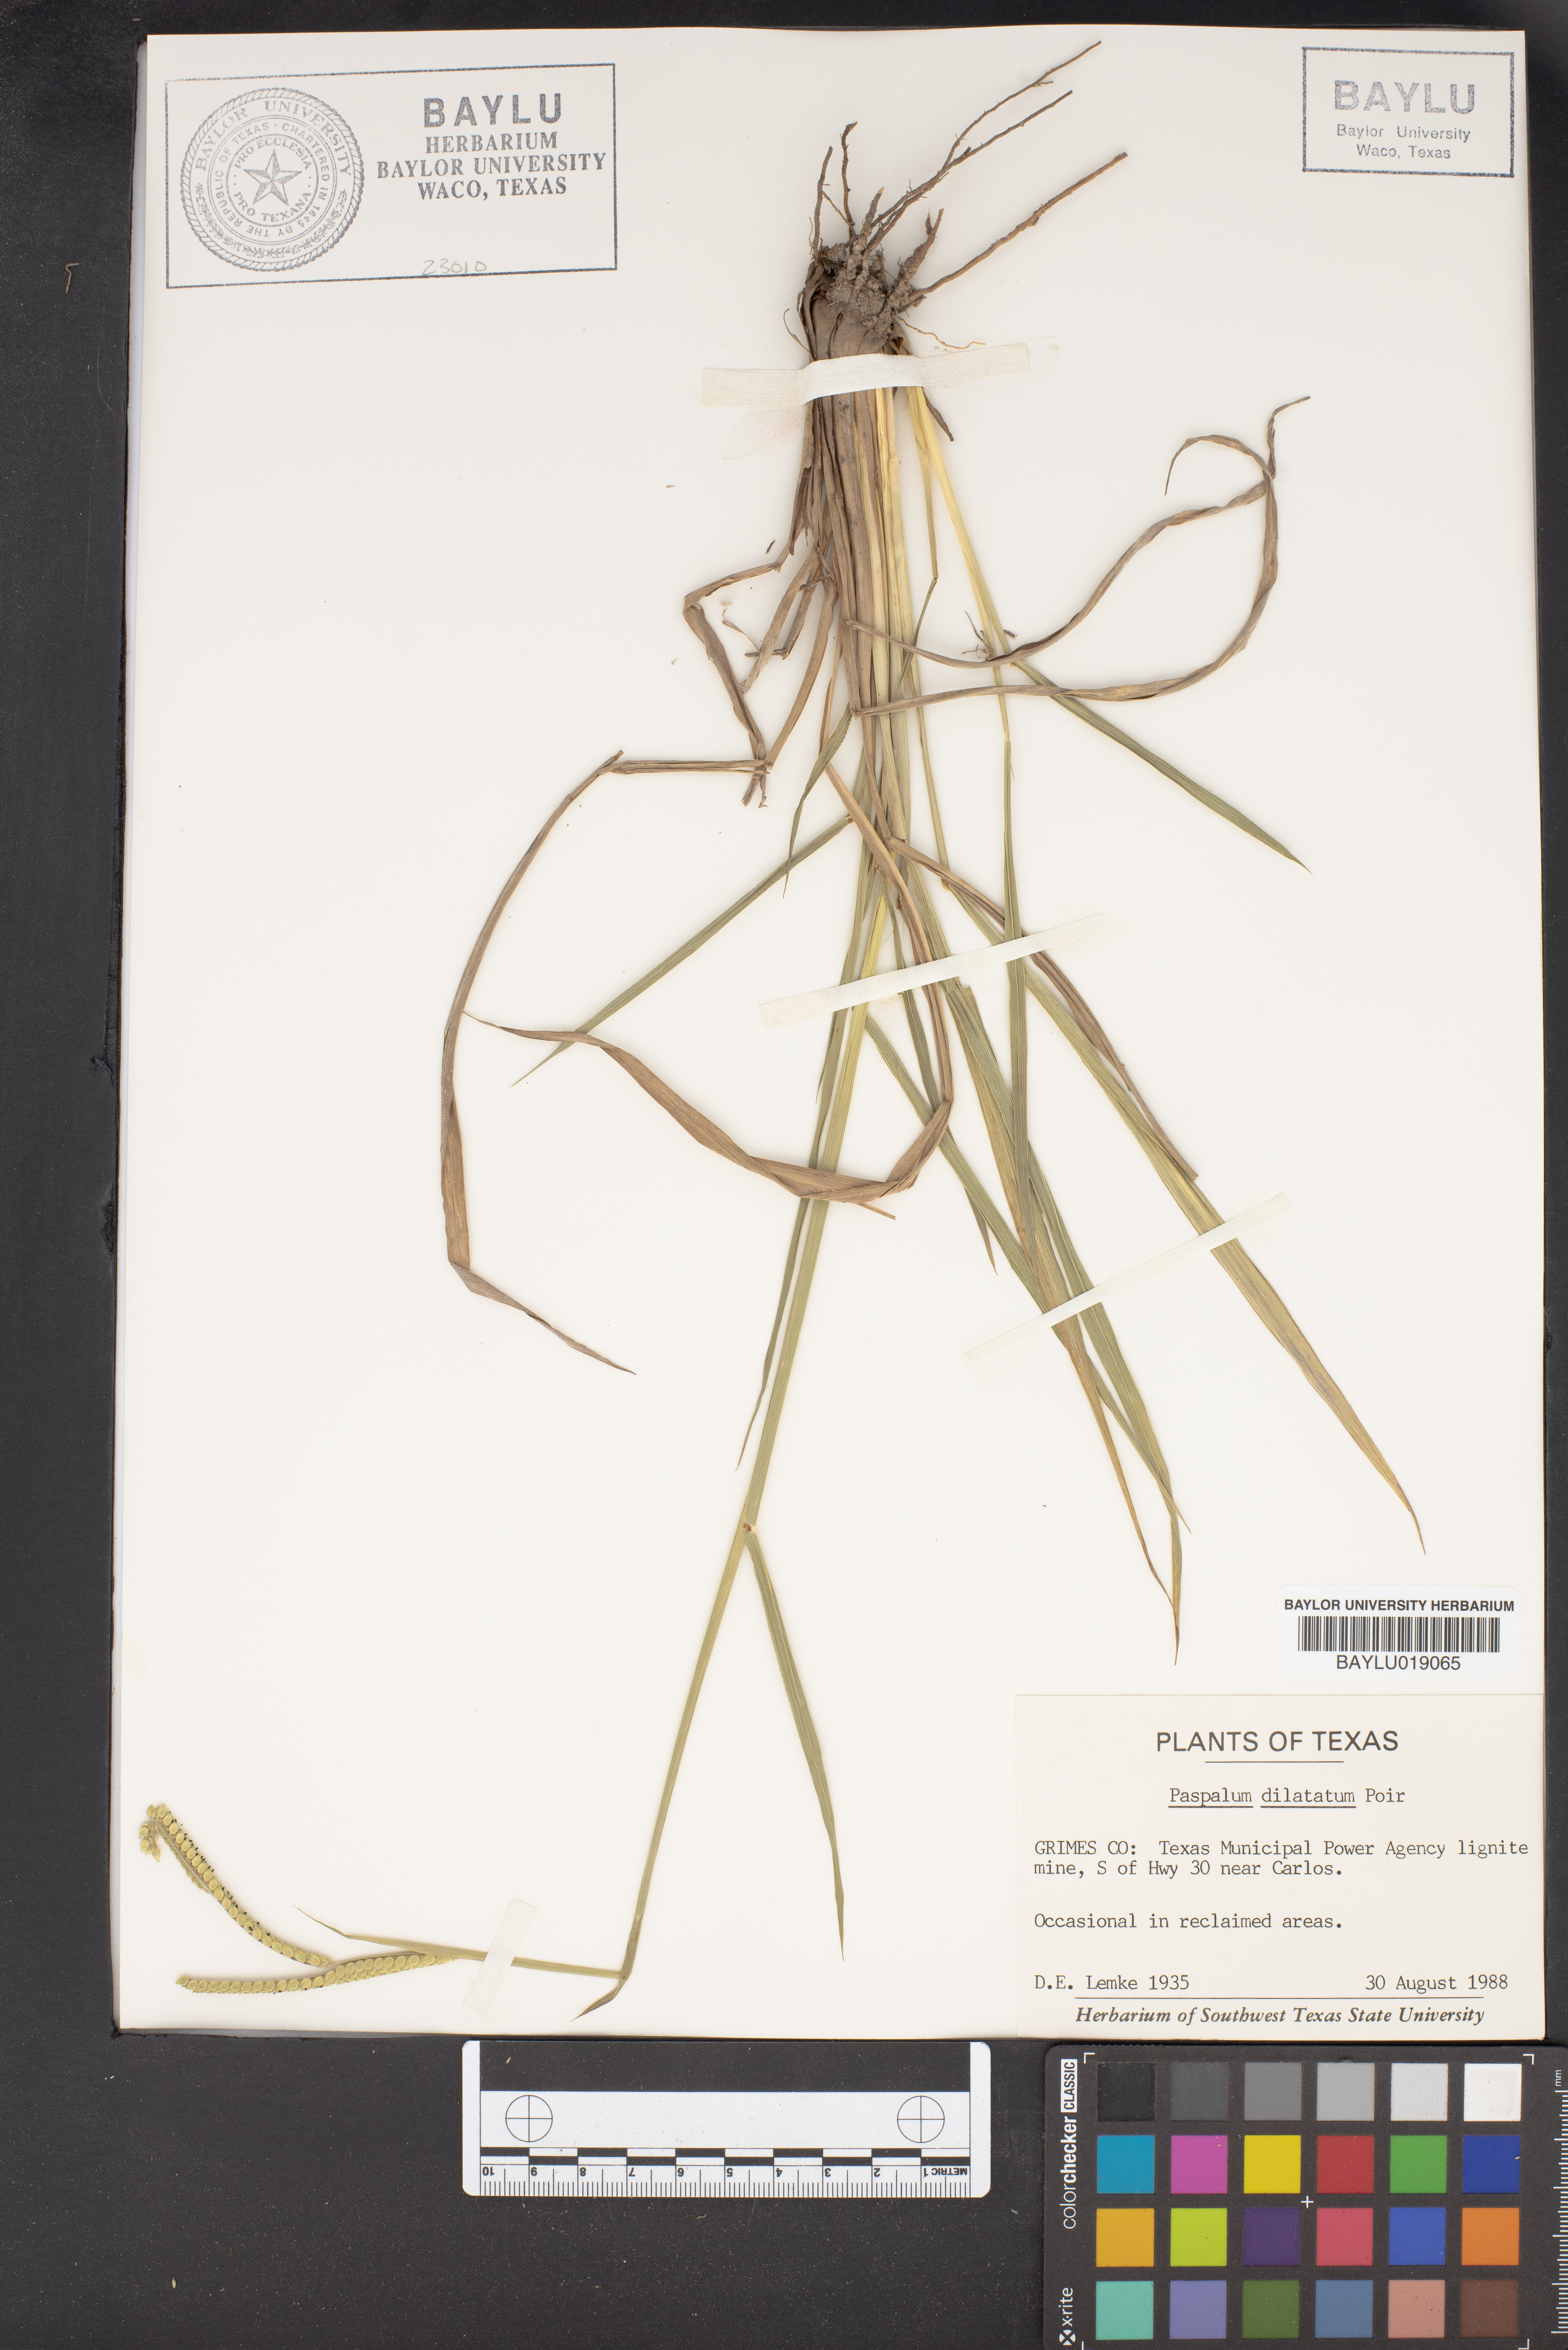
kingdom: Plantae
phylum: Tracheophyta
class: Liliopsida
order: Poales
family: Poaceae
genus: Paspalum
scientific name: Paspalum dilatatum
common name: Dallisgrass
